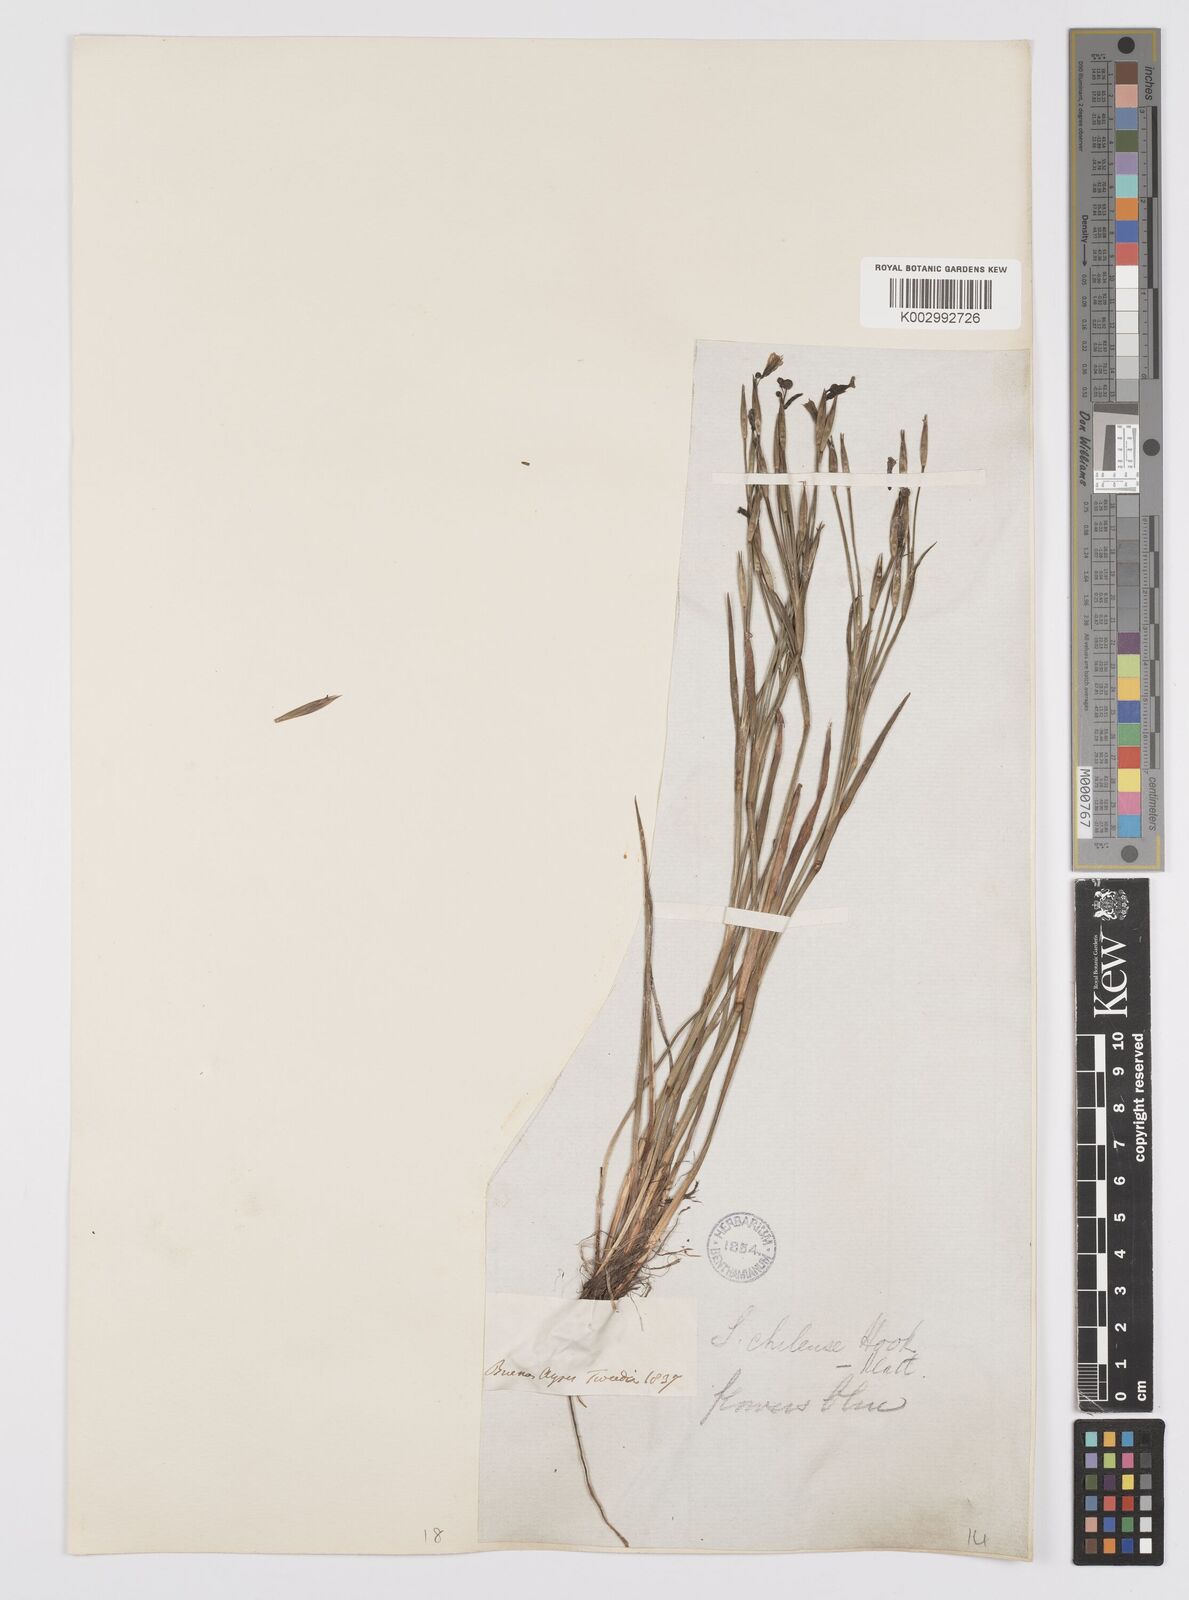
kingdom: Plantae
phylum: Tracheophyta
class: Liliopsida
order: Asparagales
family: Iridaceae
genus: Sisyrinchium
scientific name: Sisyrinchium chilense
